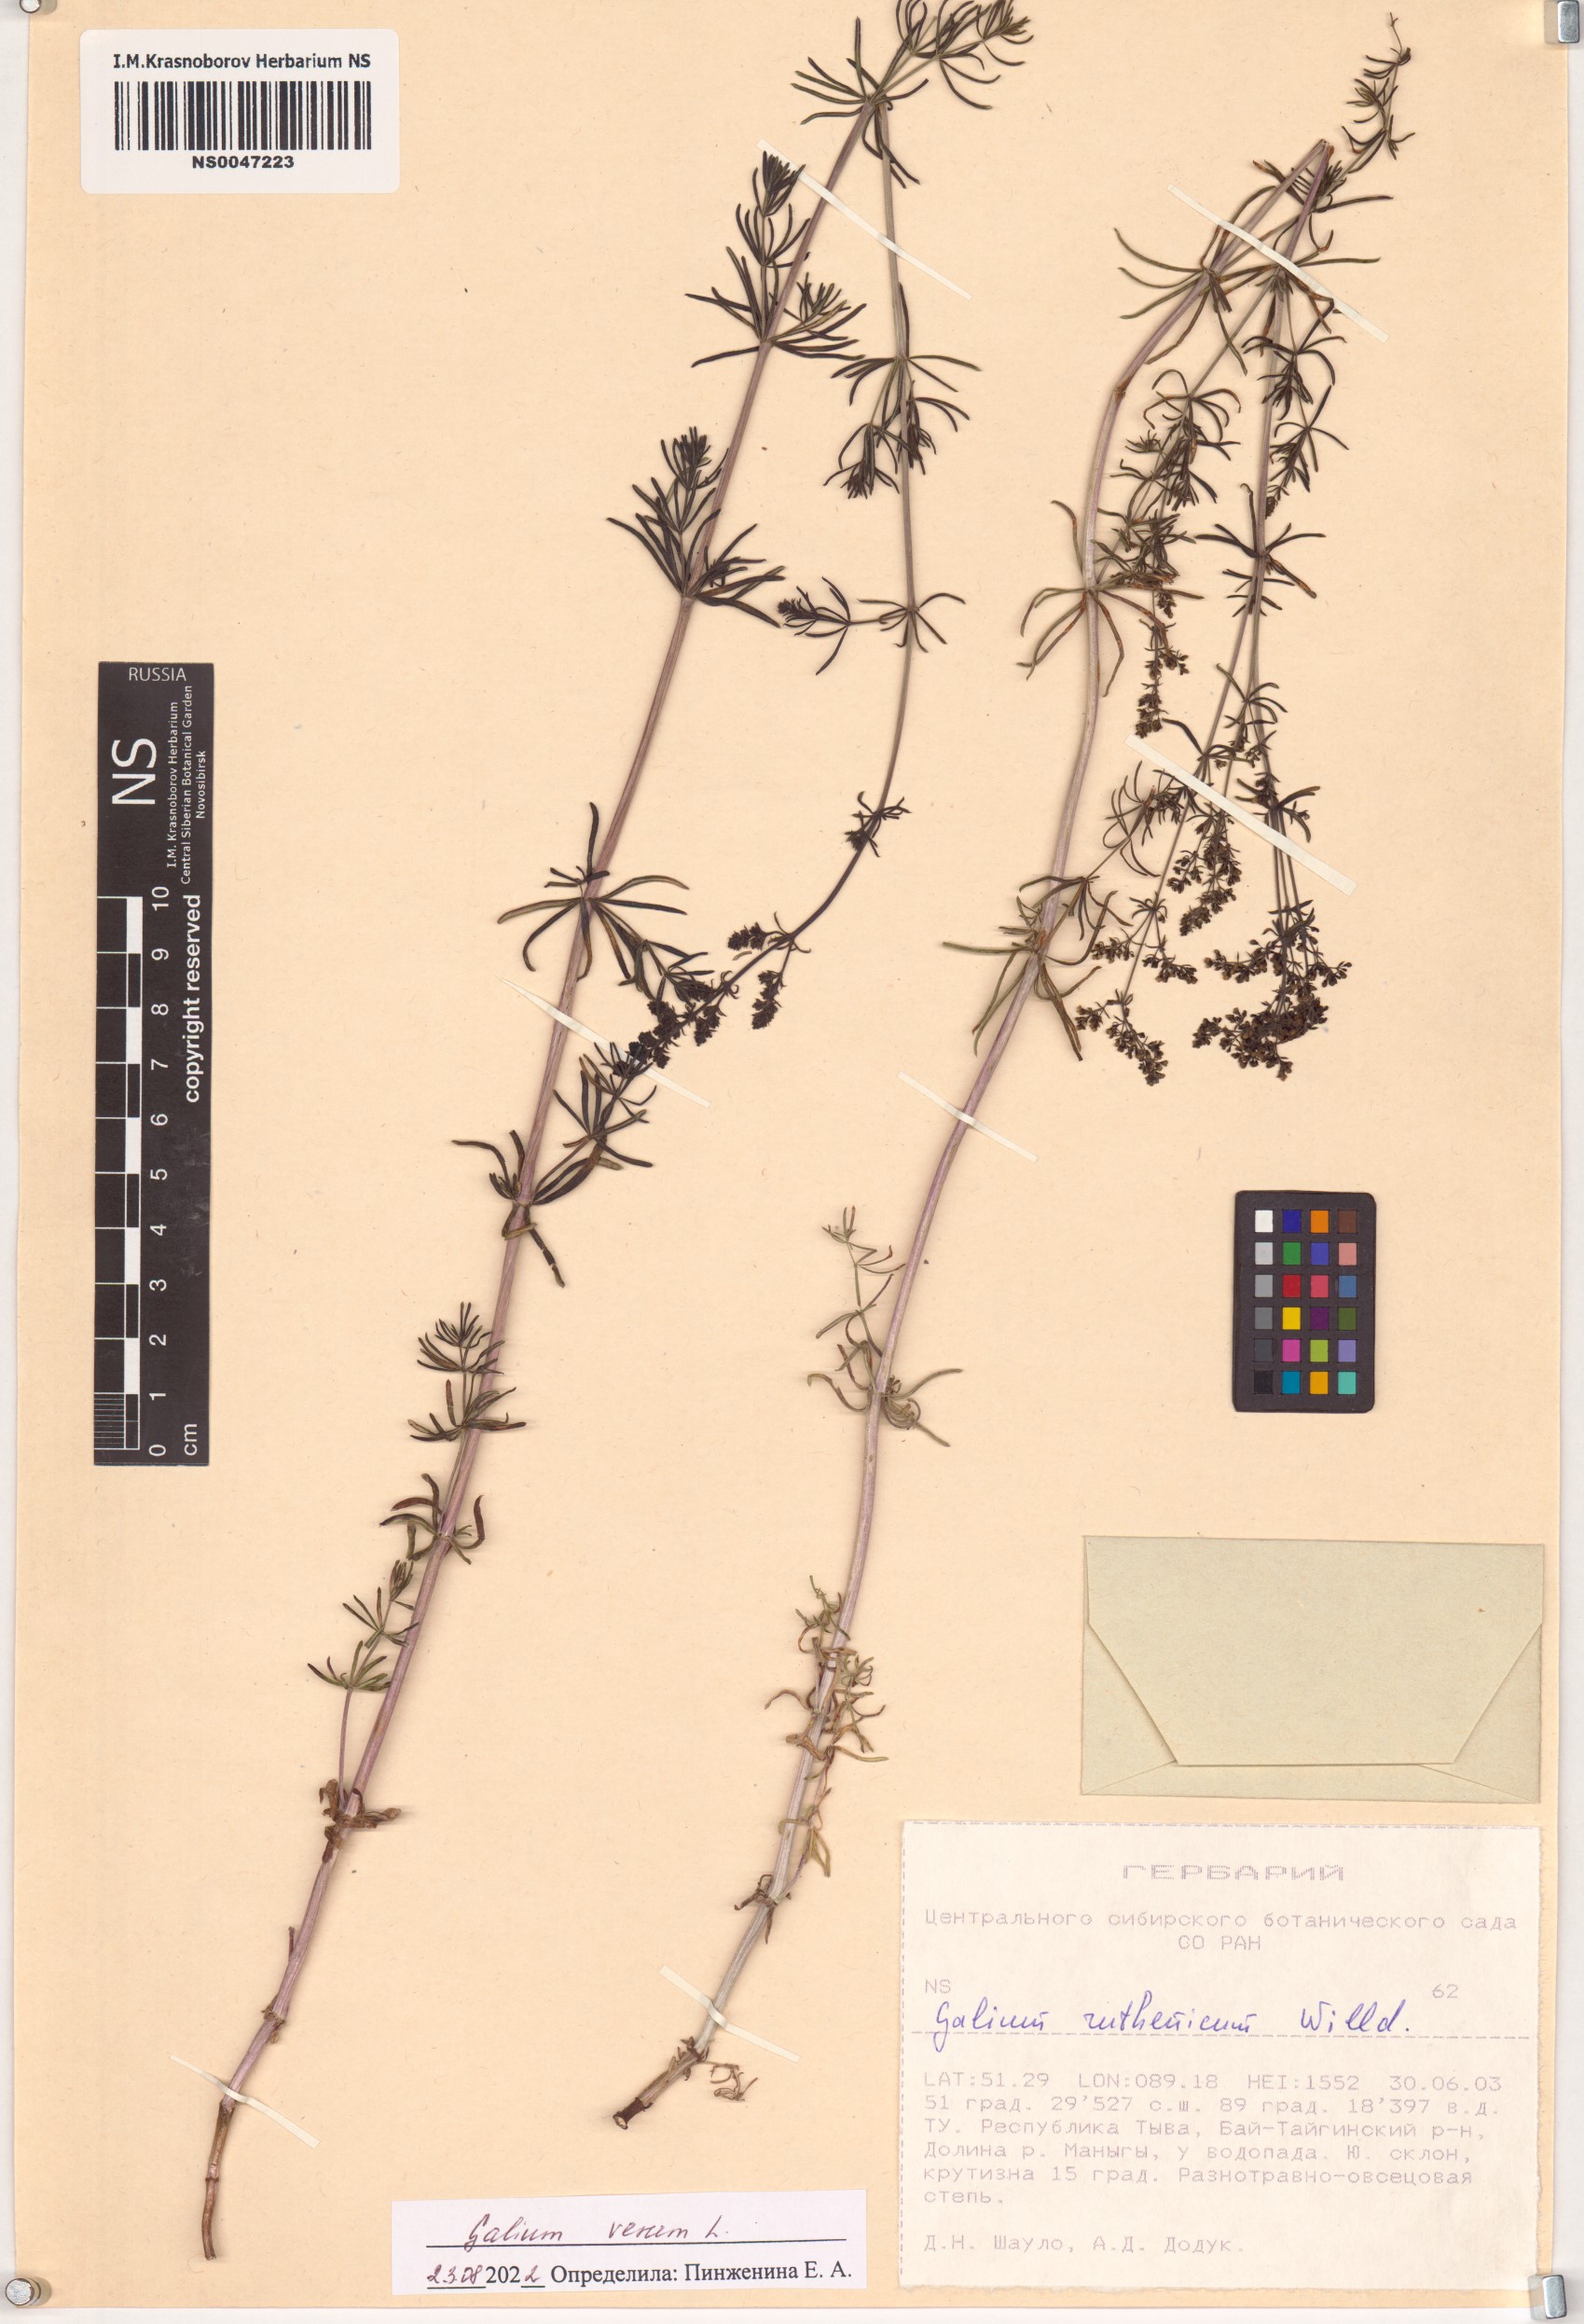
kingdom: Plantae
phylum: Tracheophyta
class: Magnoliopsida
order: Gentianales
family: Rubiaceae
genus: Galium
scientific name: Galium verum
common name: Lady's bedstraw
